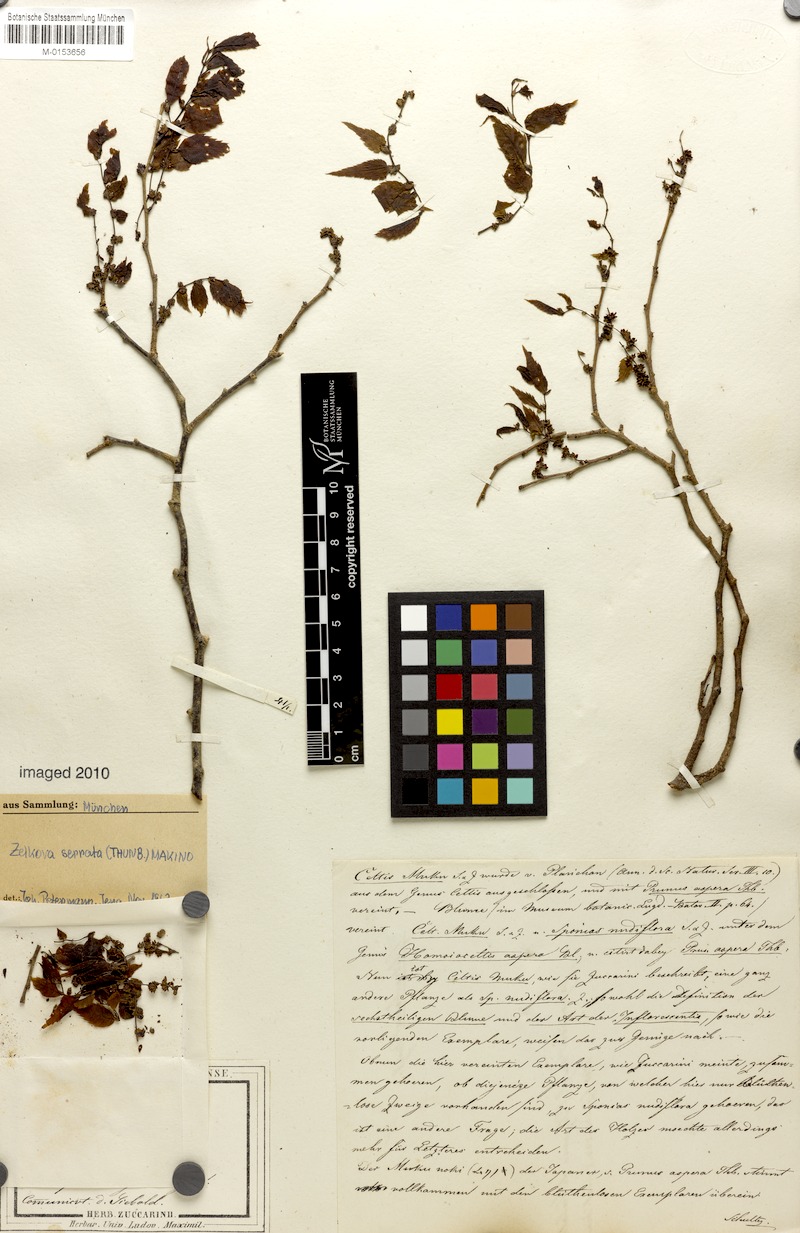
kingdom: Plantae
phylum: Tracheophyta
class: Magnoliopsida
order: Rosales
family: Ulmaceae
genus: Zelkova
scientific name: Zelkova serrata
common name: Japanese zelkova
